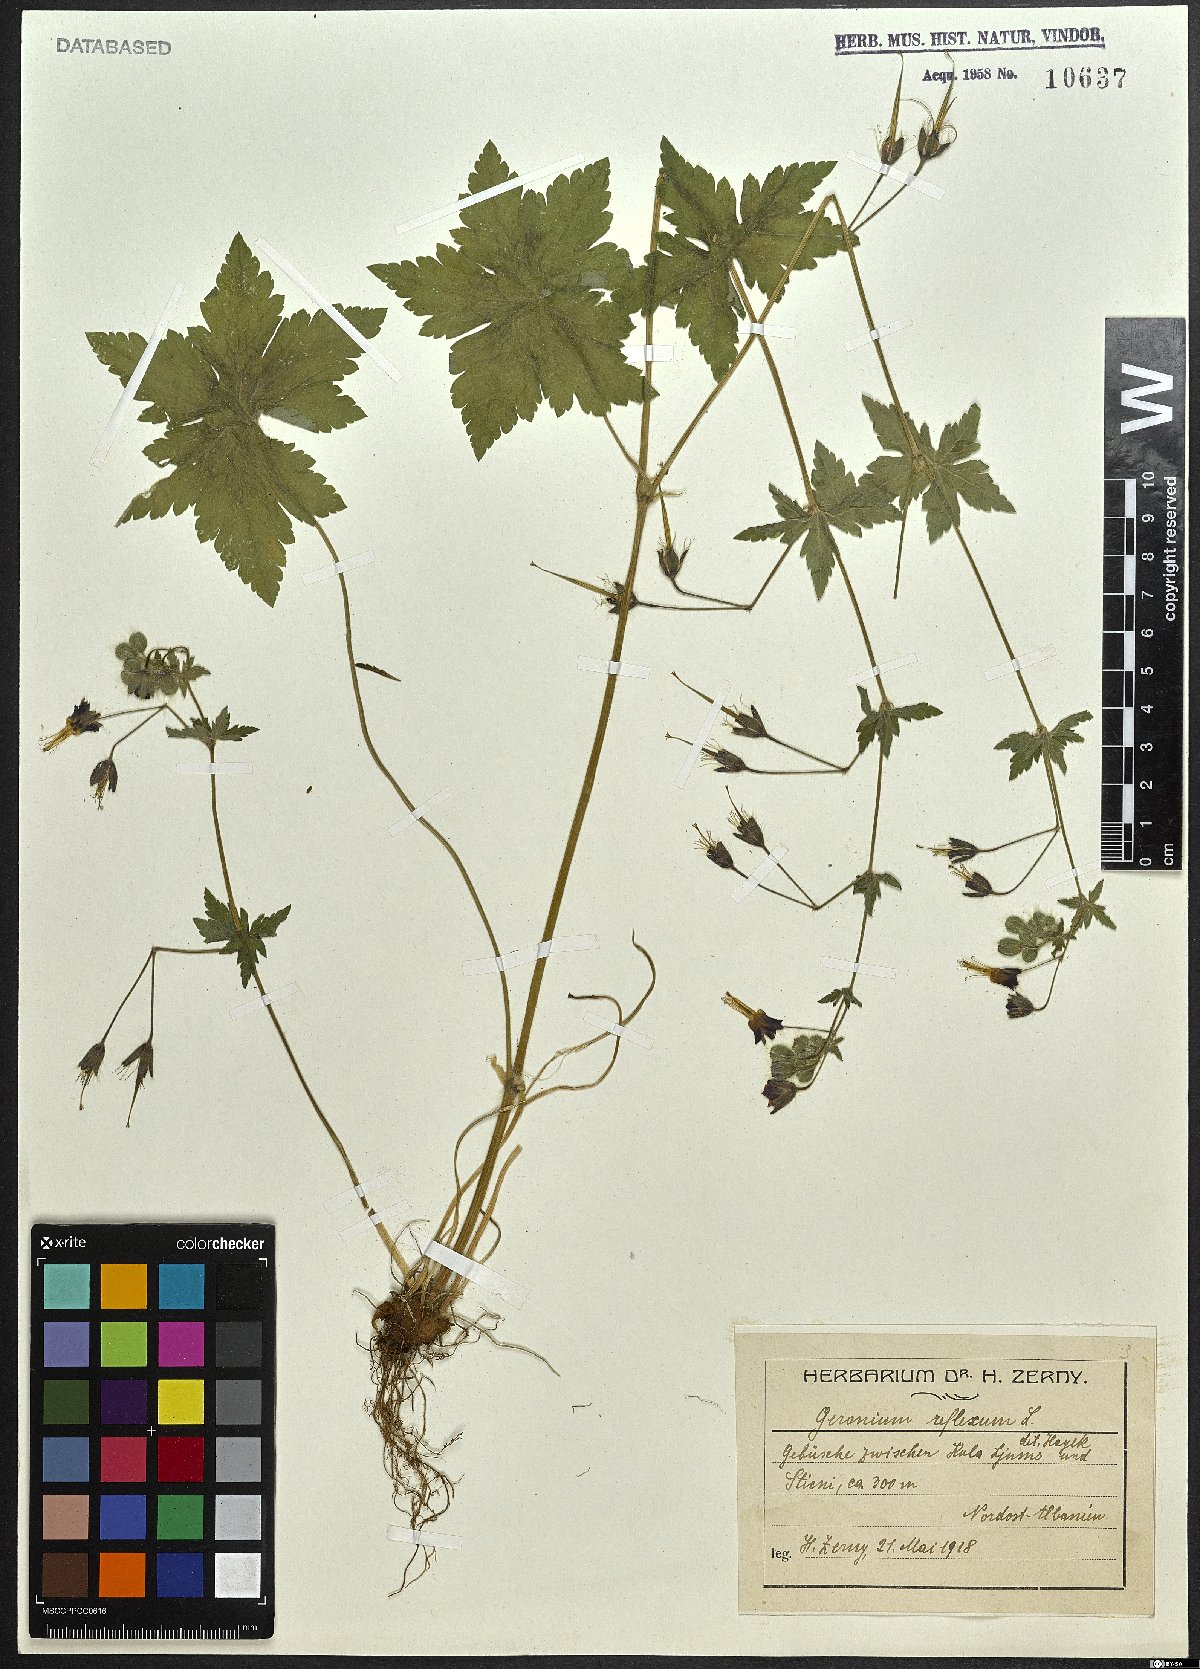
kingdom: Plantae
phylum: Tracheophyta
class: Magnoliopsida
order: Geraniales
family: Geraniaceae
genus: Geranium
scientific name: Geranium reflexum
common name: Reflexed crane's-bill
